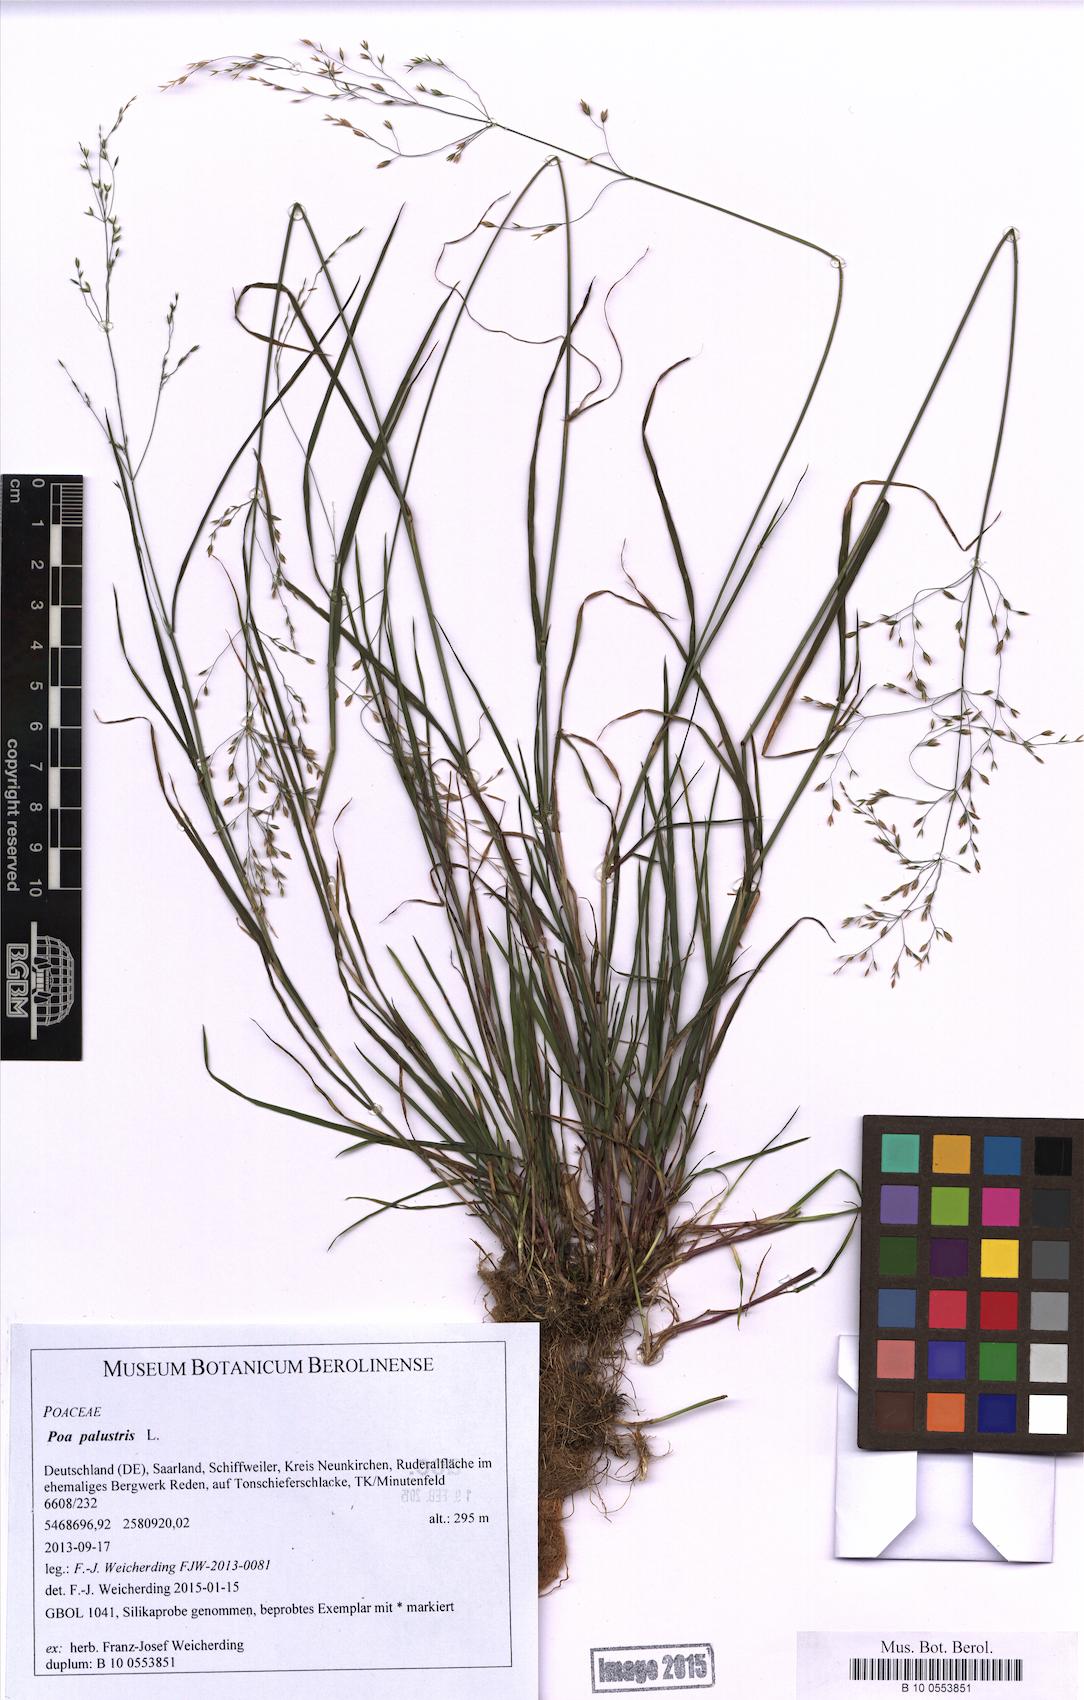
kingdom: Plantae
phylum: Tracheophyta
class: Liliopsida
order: Poales
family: Poaceae
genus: Poa
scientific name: Poa palustris
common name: Swamp meadow-grass
